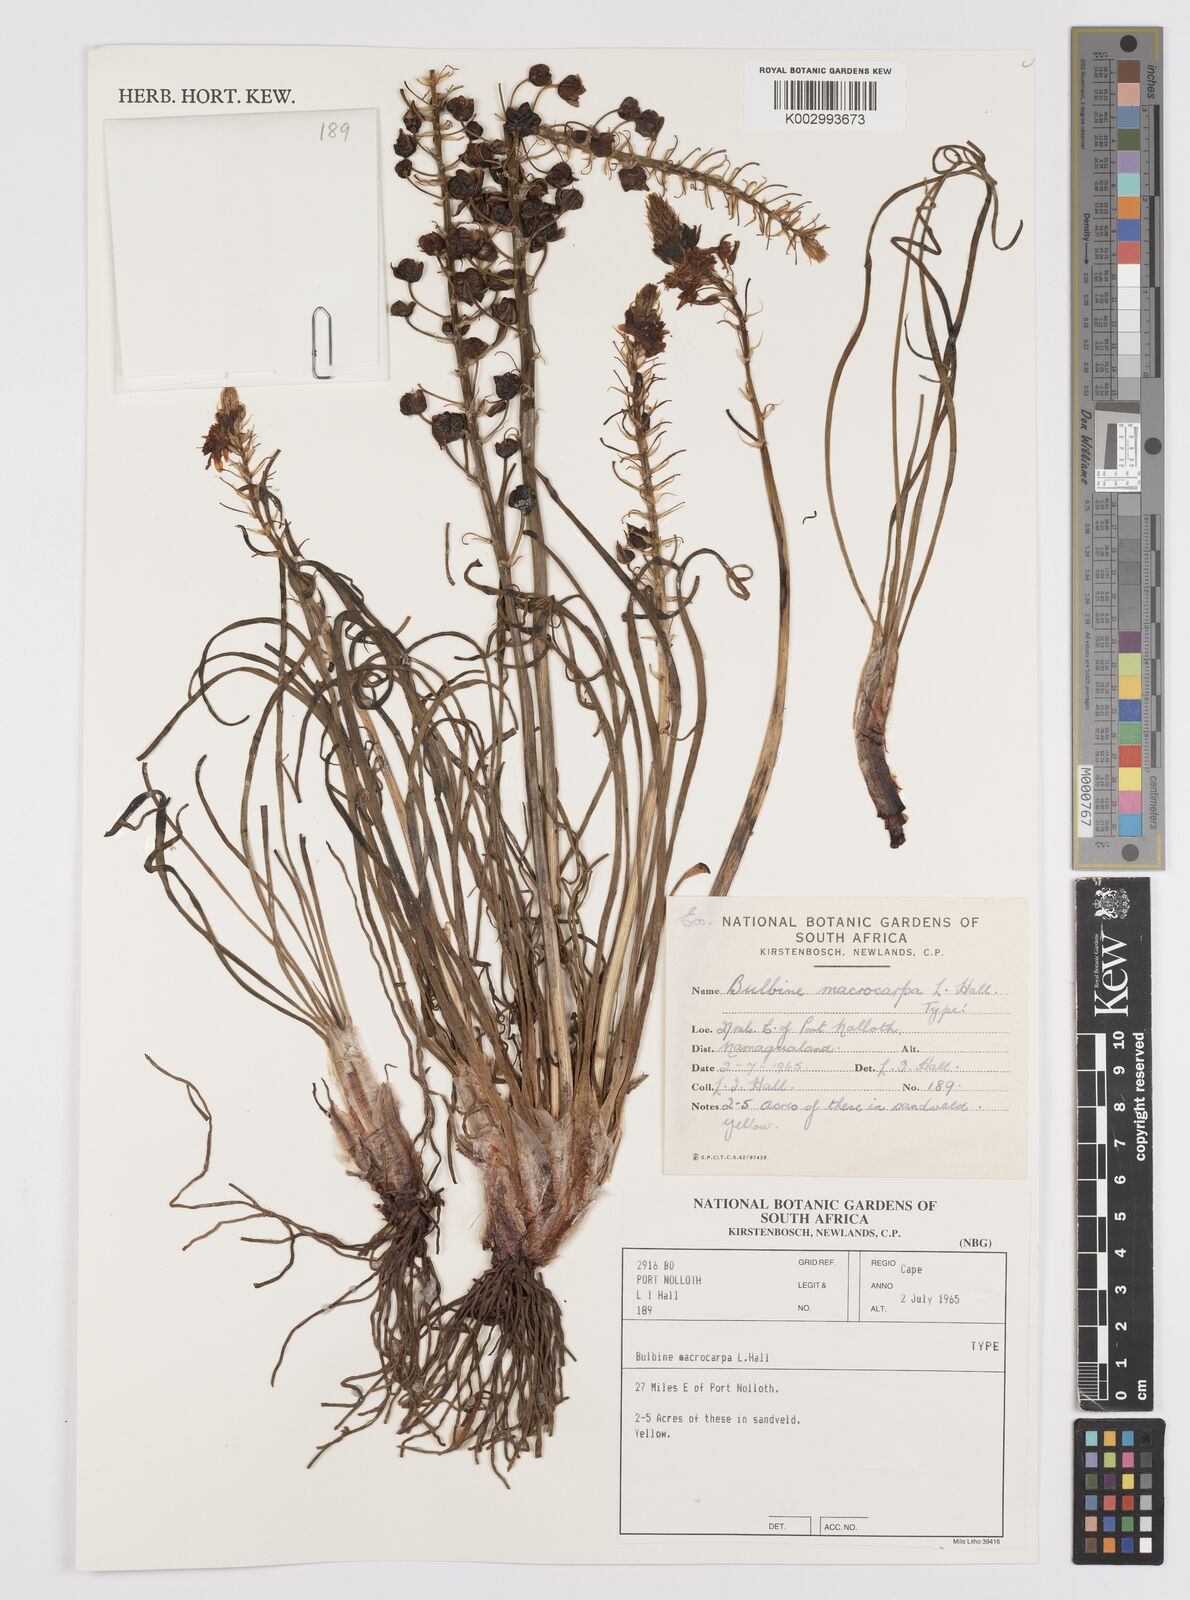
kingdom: Plantae
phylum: Tracheophyta
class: Liliopsida
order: Asparagales
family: Asphodelaceae
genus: Bulbine
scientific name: Bulbine macrocarpa
